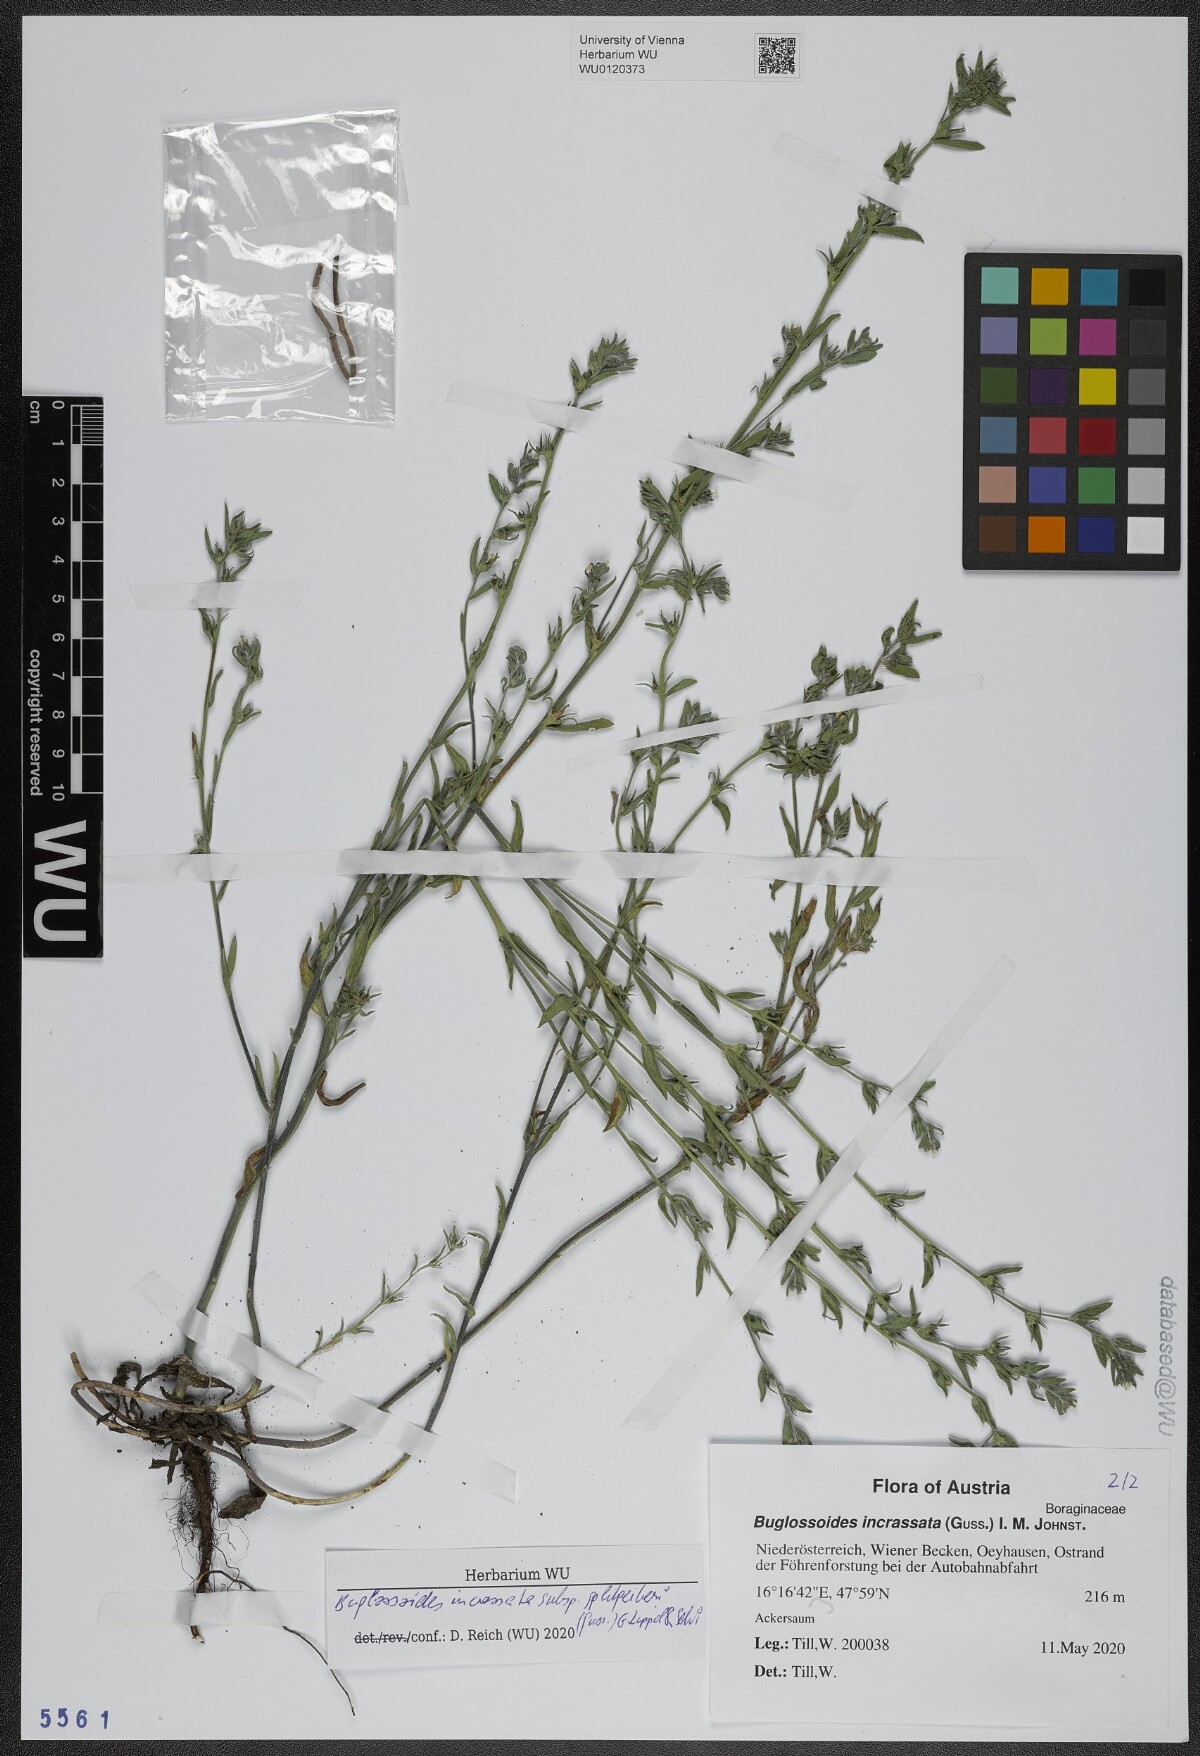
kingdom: Plantae
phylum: Tracheophyta
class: Magnoliopsida
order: Boraginales
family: Boraginaceae
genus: Buglossoides
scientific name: Buglossoides incrassata
